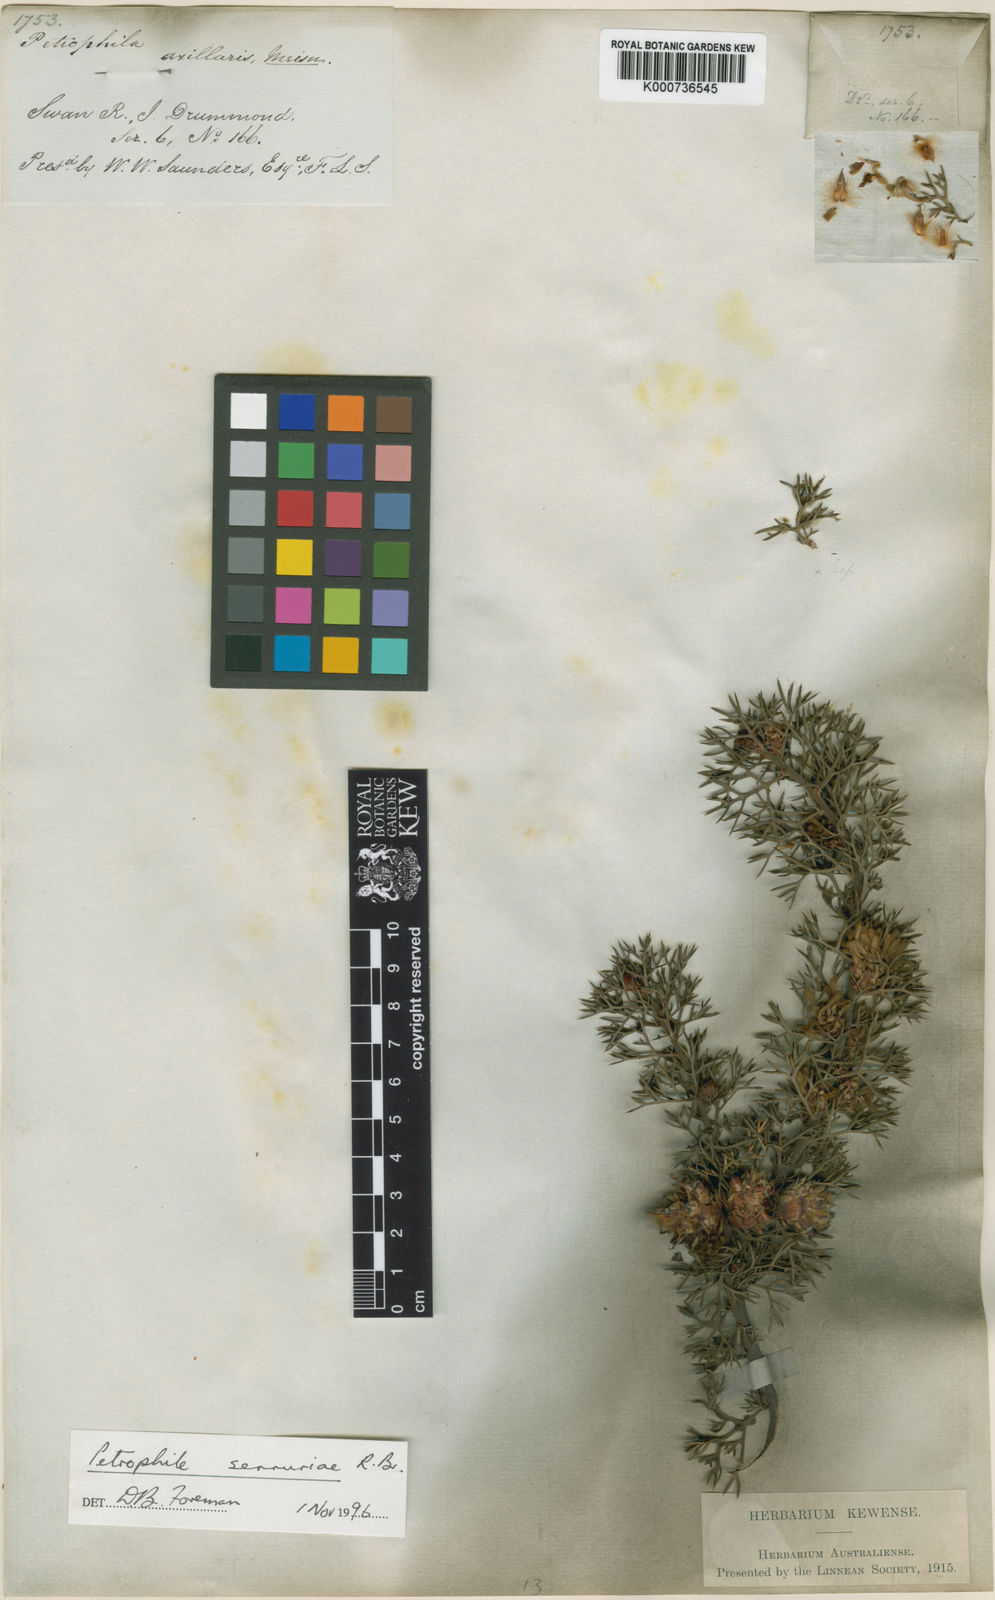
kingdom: Plantae
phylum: Tracheophyta
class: Magnoliopsida
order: Proteales
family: Proteaceae
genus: Petrophile
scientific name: Petrophile serruriae
